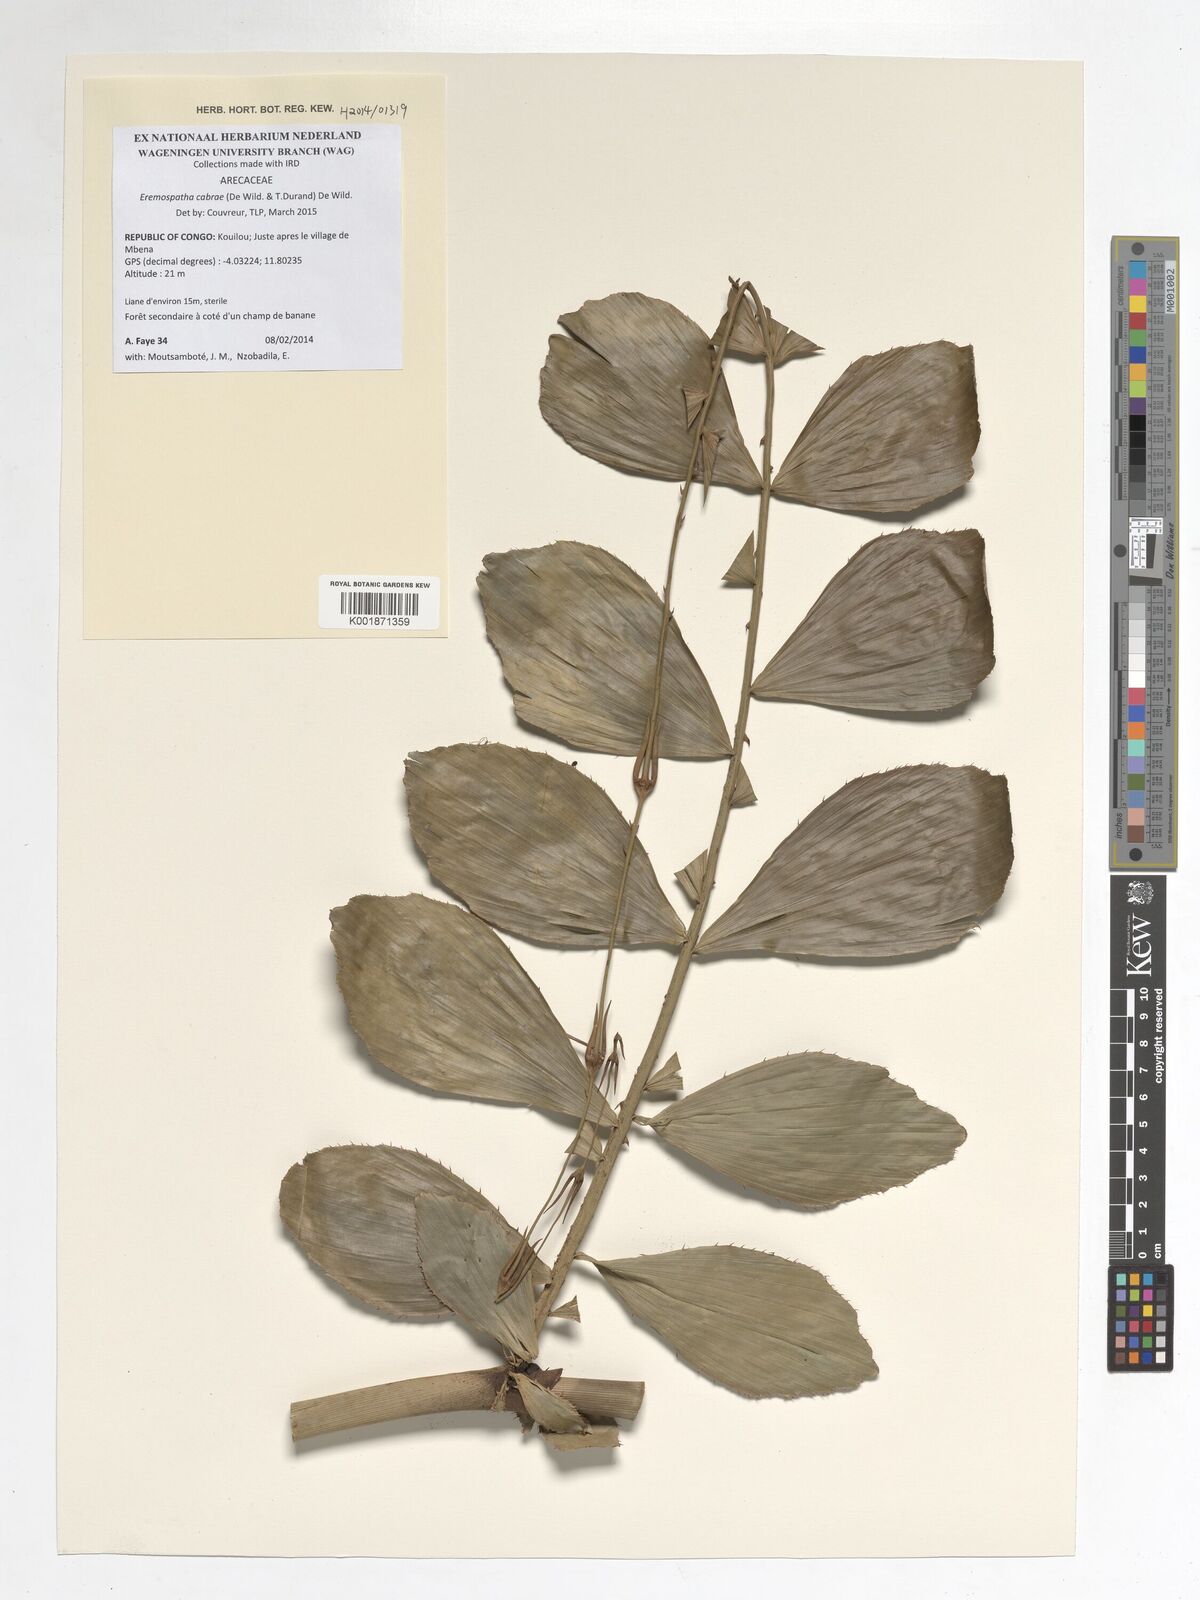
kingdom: Plantae
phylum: Tracheophyta
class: Liliopsida
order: Arecales
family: Arecaceae
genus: Eremospatha
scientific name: Eremospatha cabrae
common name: Rattan
